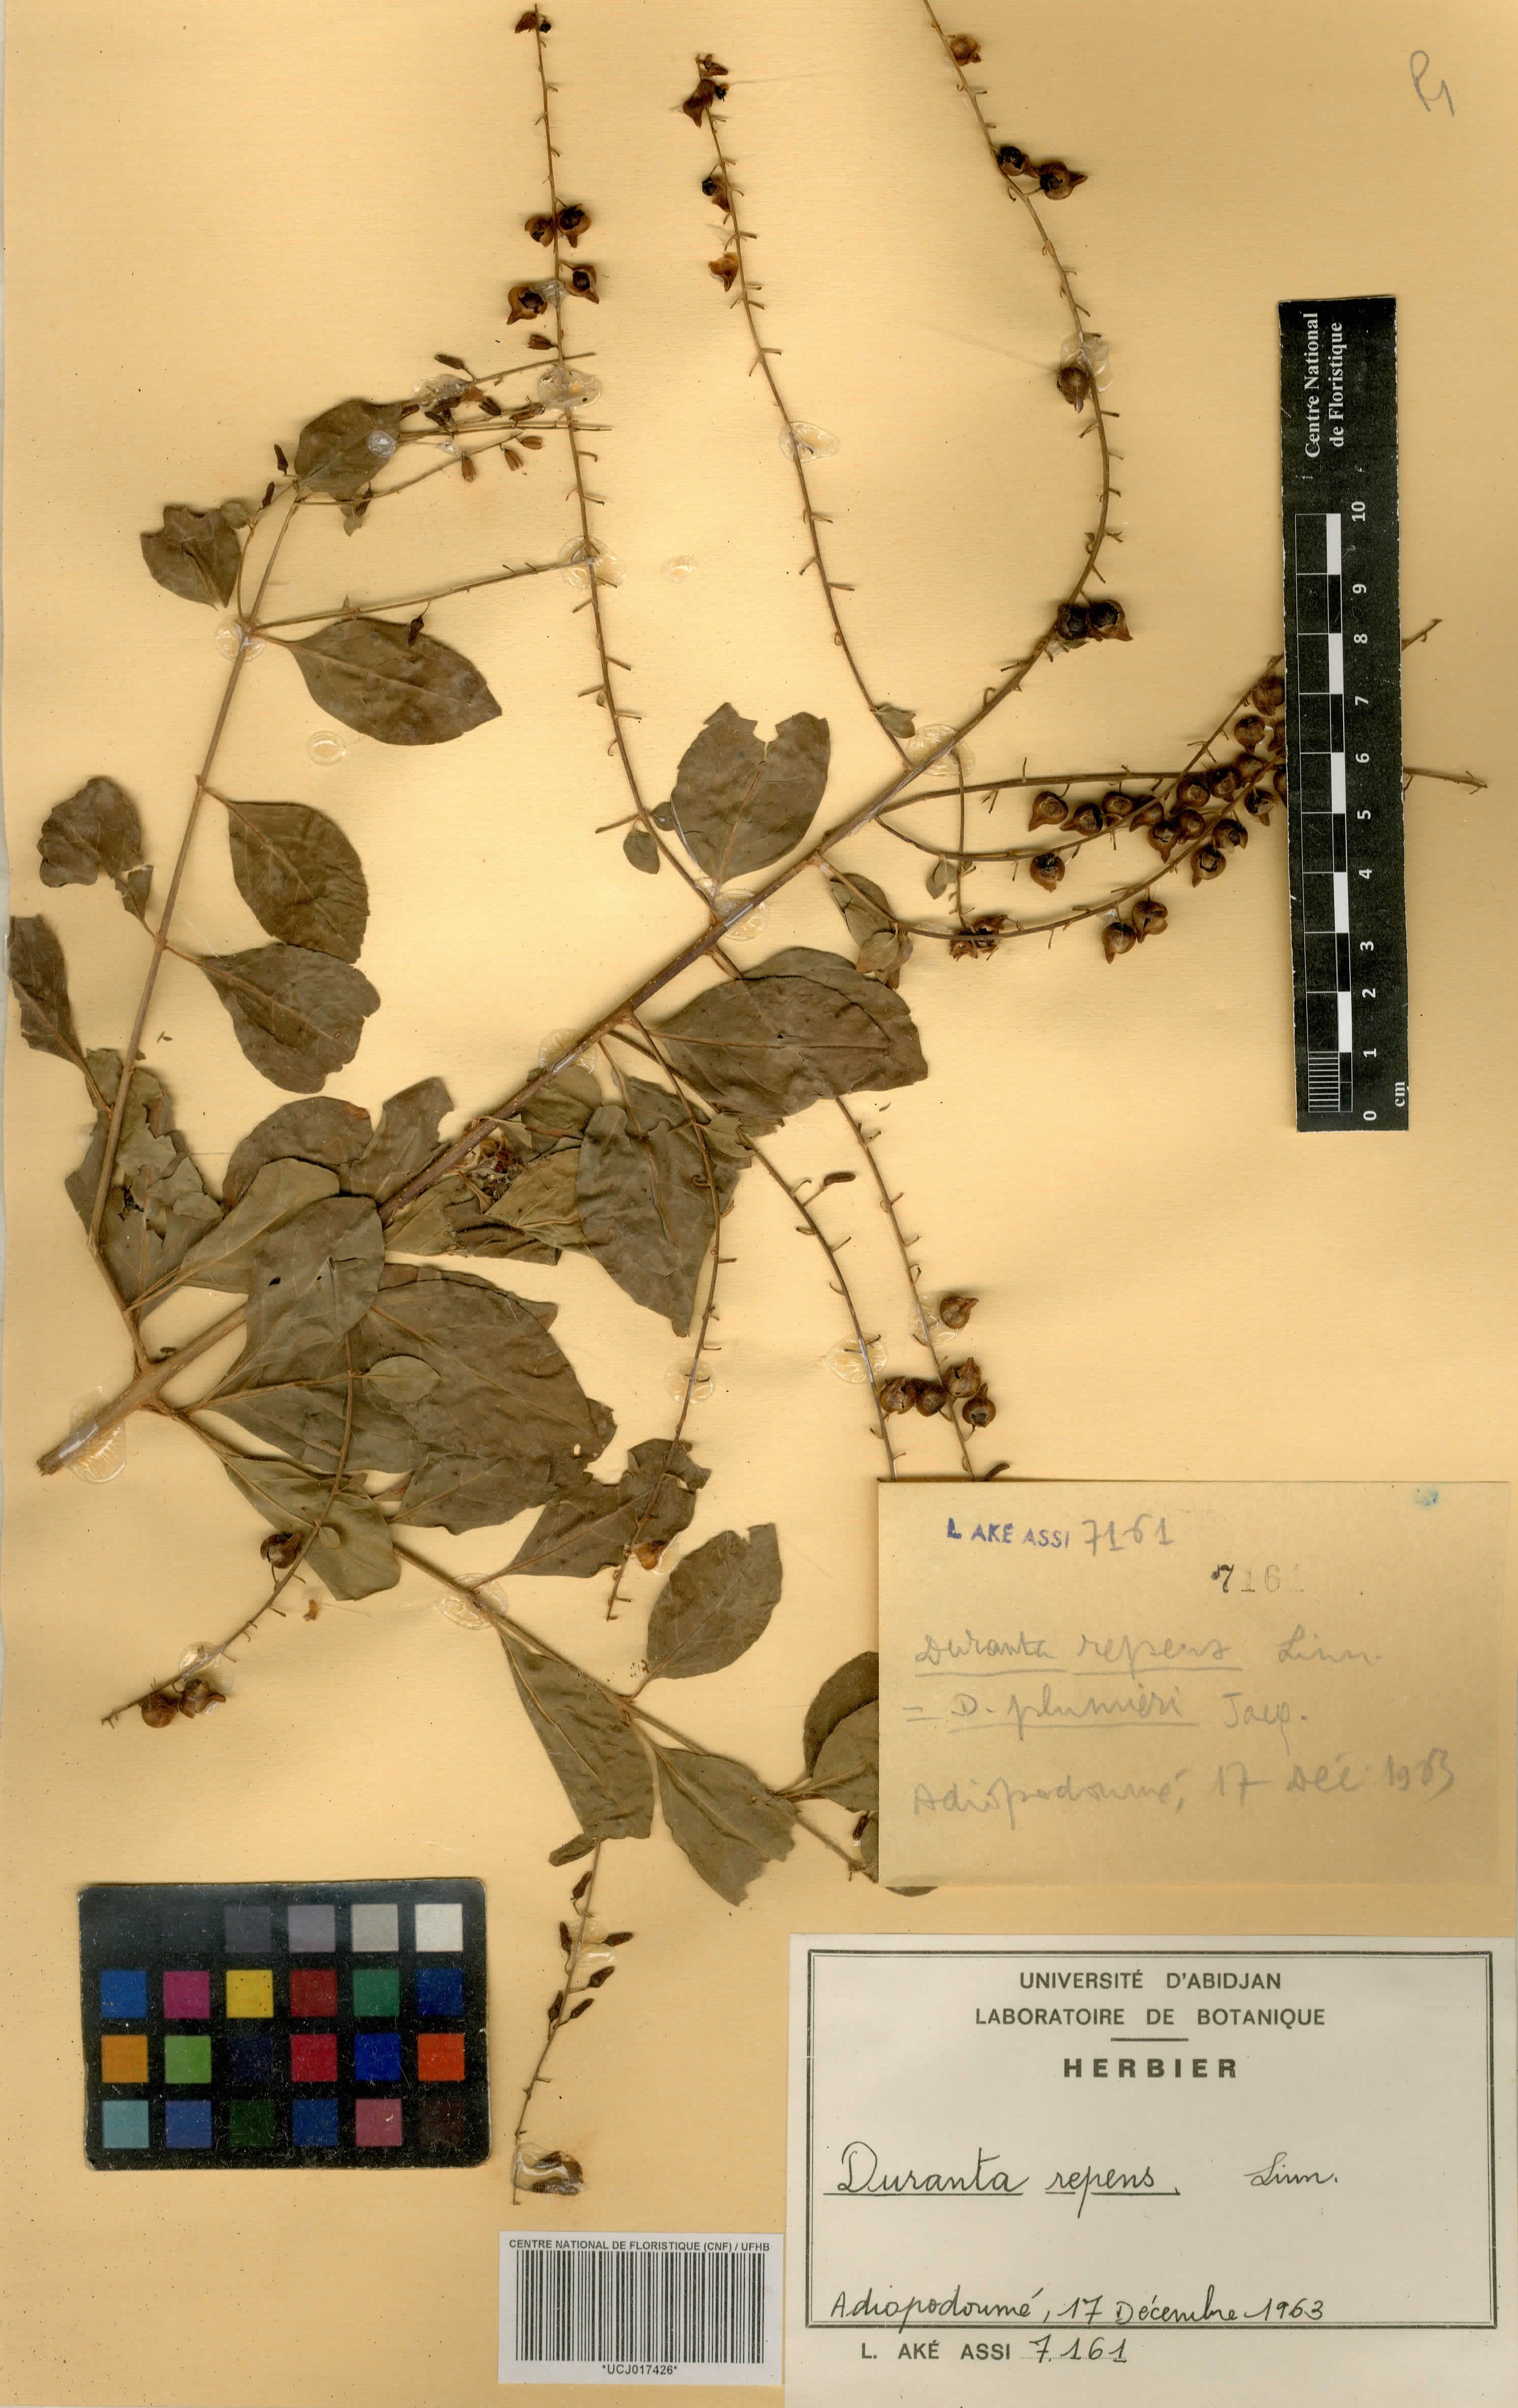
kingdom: Plantae
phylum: Tracheophyta
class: Magnoliopsida
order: Lamiales
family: Verbenaceae
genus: Duranta
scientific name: Duranta erecta
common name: Golden dewdrops
